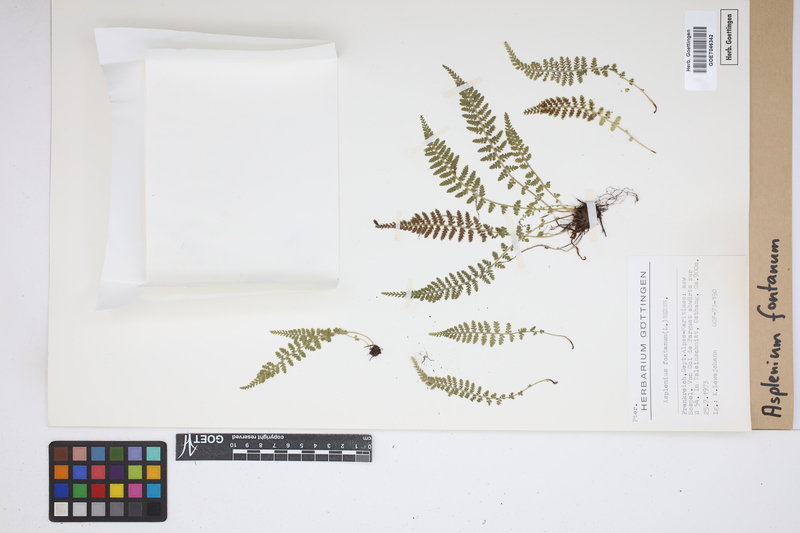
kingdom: Plantae
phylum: Tracheophyta
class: Polypodiopsida
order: Polypodiales
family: Aspleniaceae
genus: Asplenium
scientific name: Asplenium fontanum
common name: Fountain spleenwort
